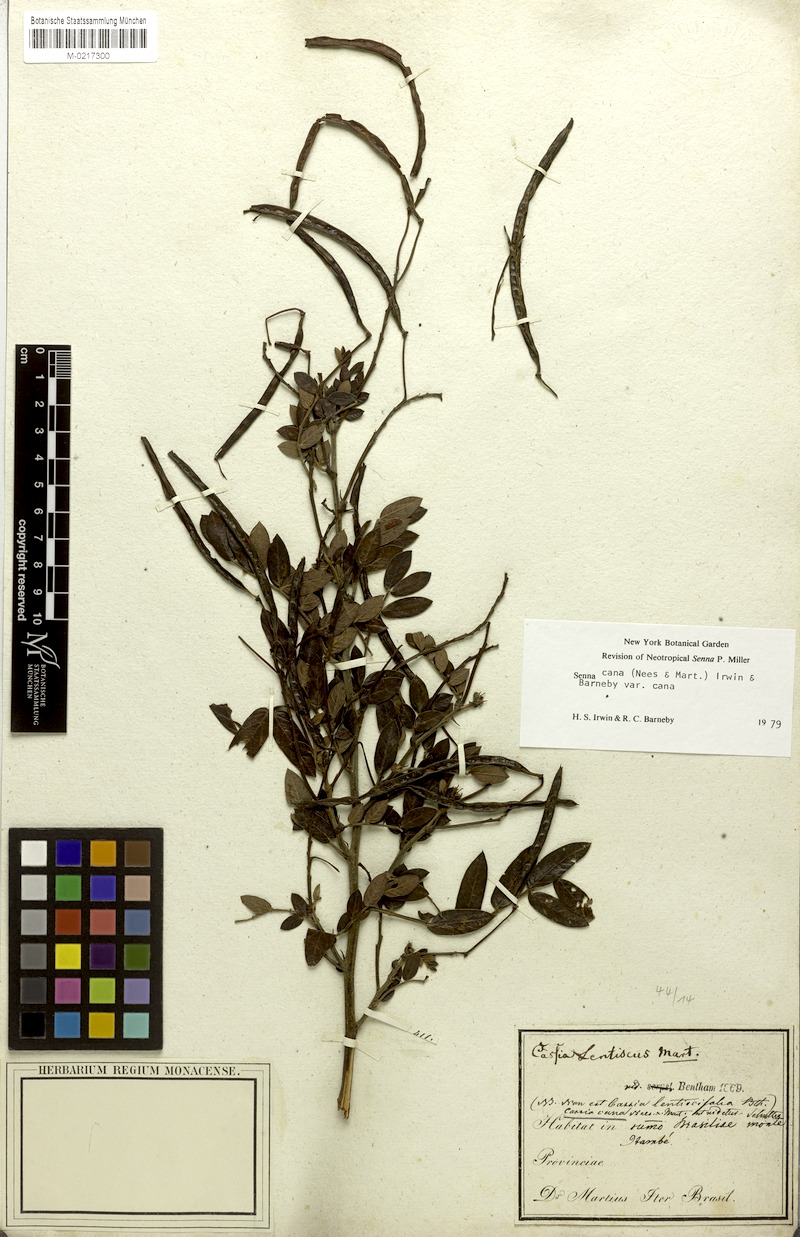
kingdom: Plantae
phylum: Tracheophyta
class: Magnoliopsida
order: Fabales
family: Fabaceae
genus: Senna
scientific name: Senna cana
